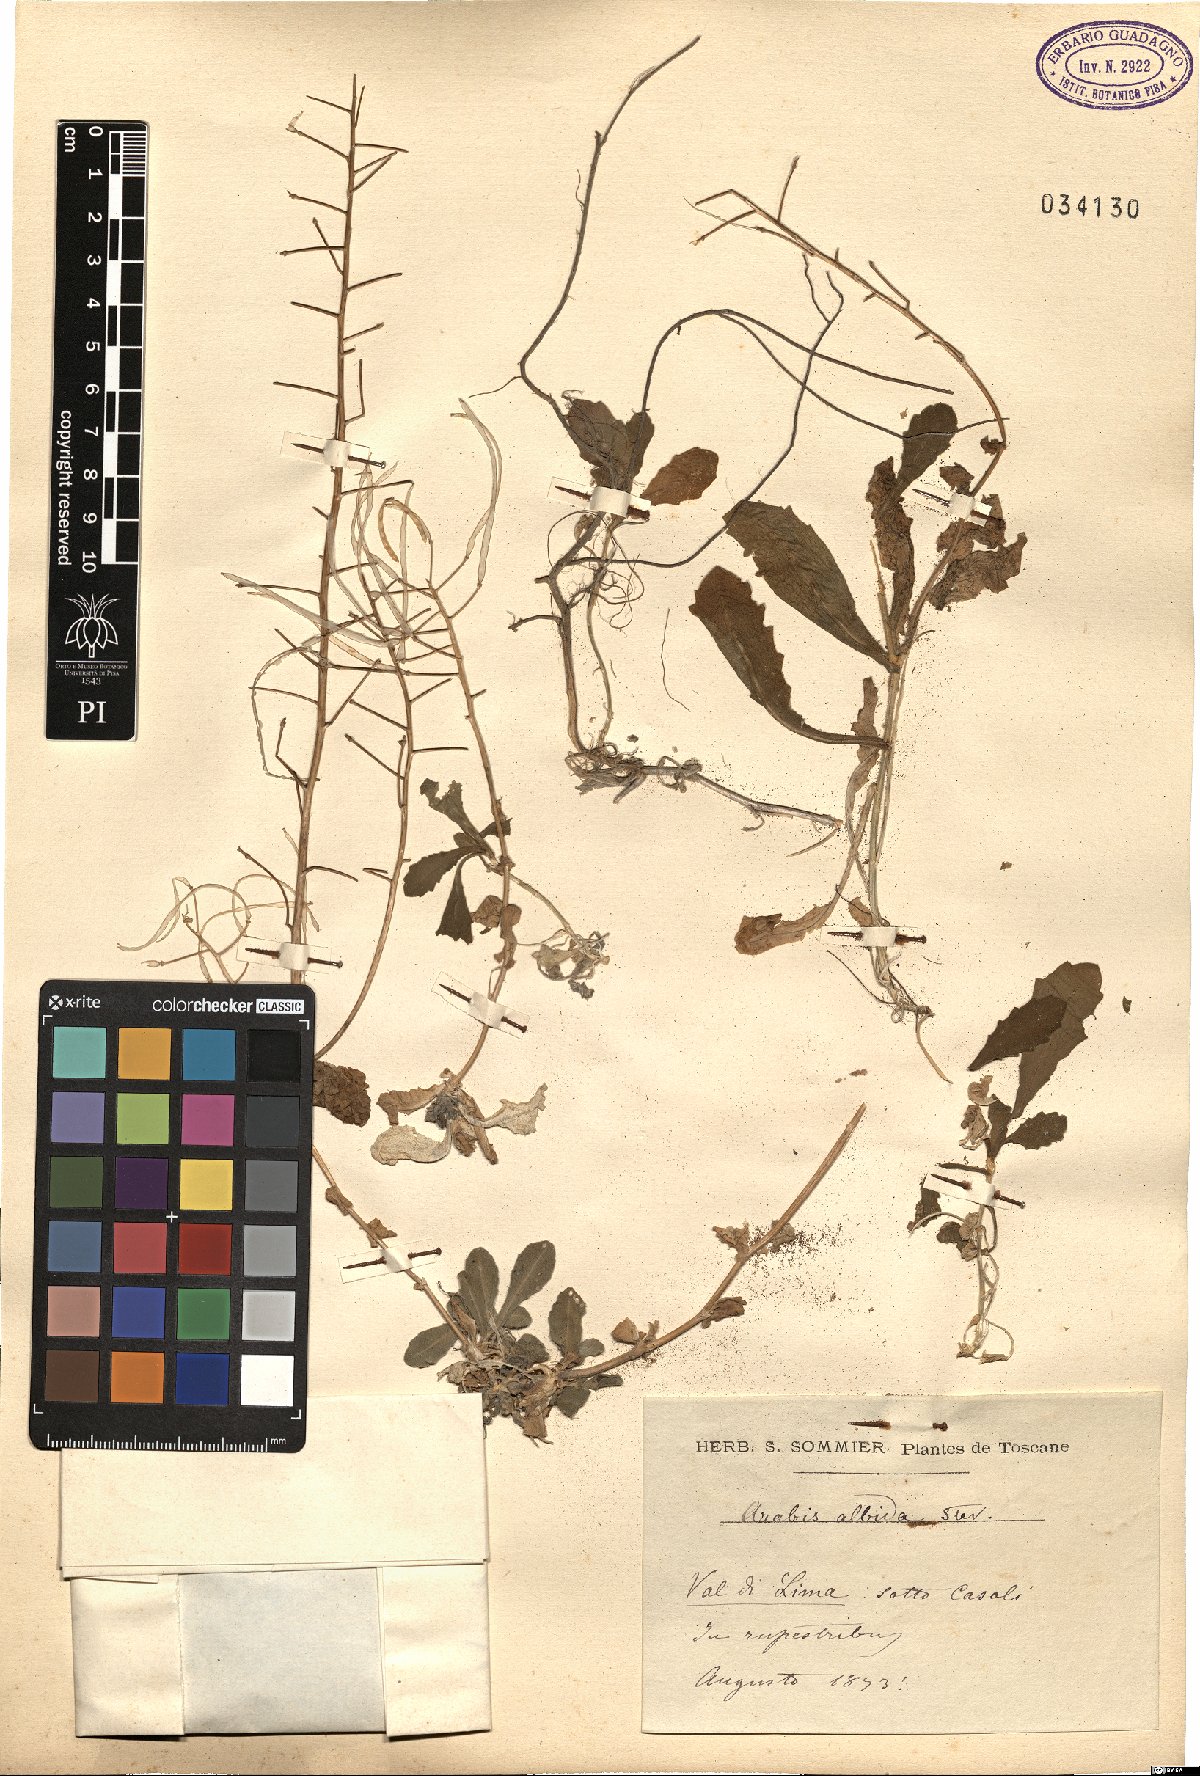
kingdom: Plantae
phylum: Tracheophyta
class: Magnoliopsida
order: Brassicales
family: Brassicaceae
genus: Arabis
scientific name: Arabis caucasica
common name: Gray rockcress
